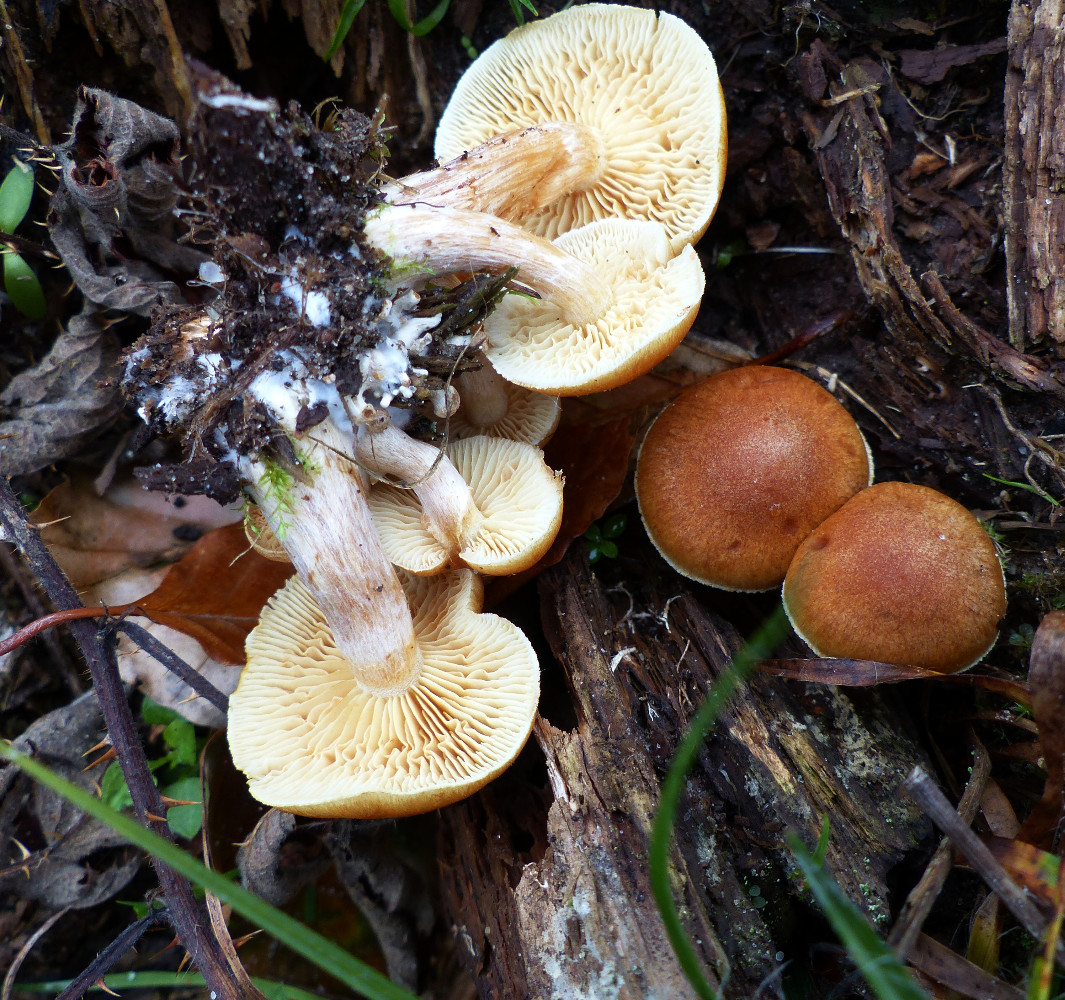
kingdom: Fungi
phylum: Basidiomycota
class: Agaricomycetes
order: Agaricales
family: Hymenogastraceae
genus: Gymnopilus
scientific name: Gymnopilus penetrans
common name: plettet flammehat
